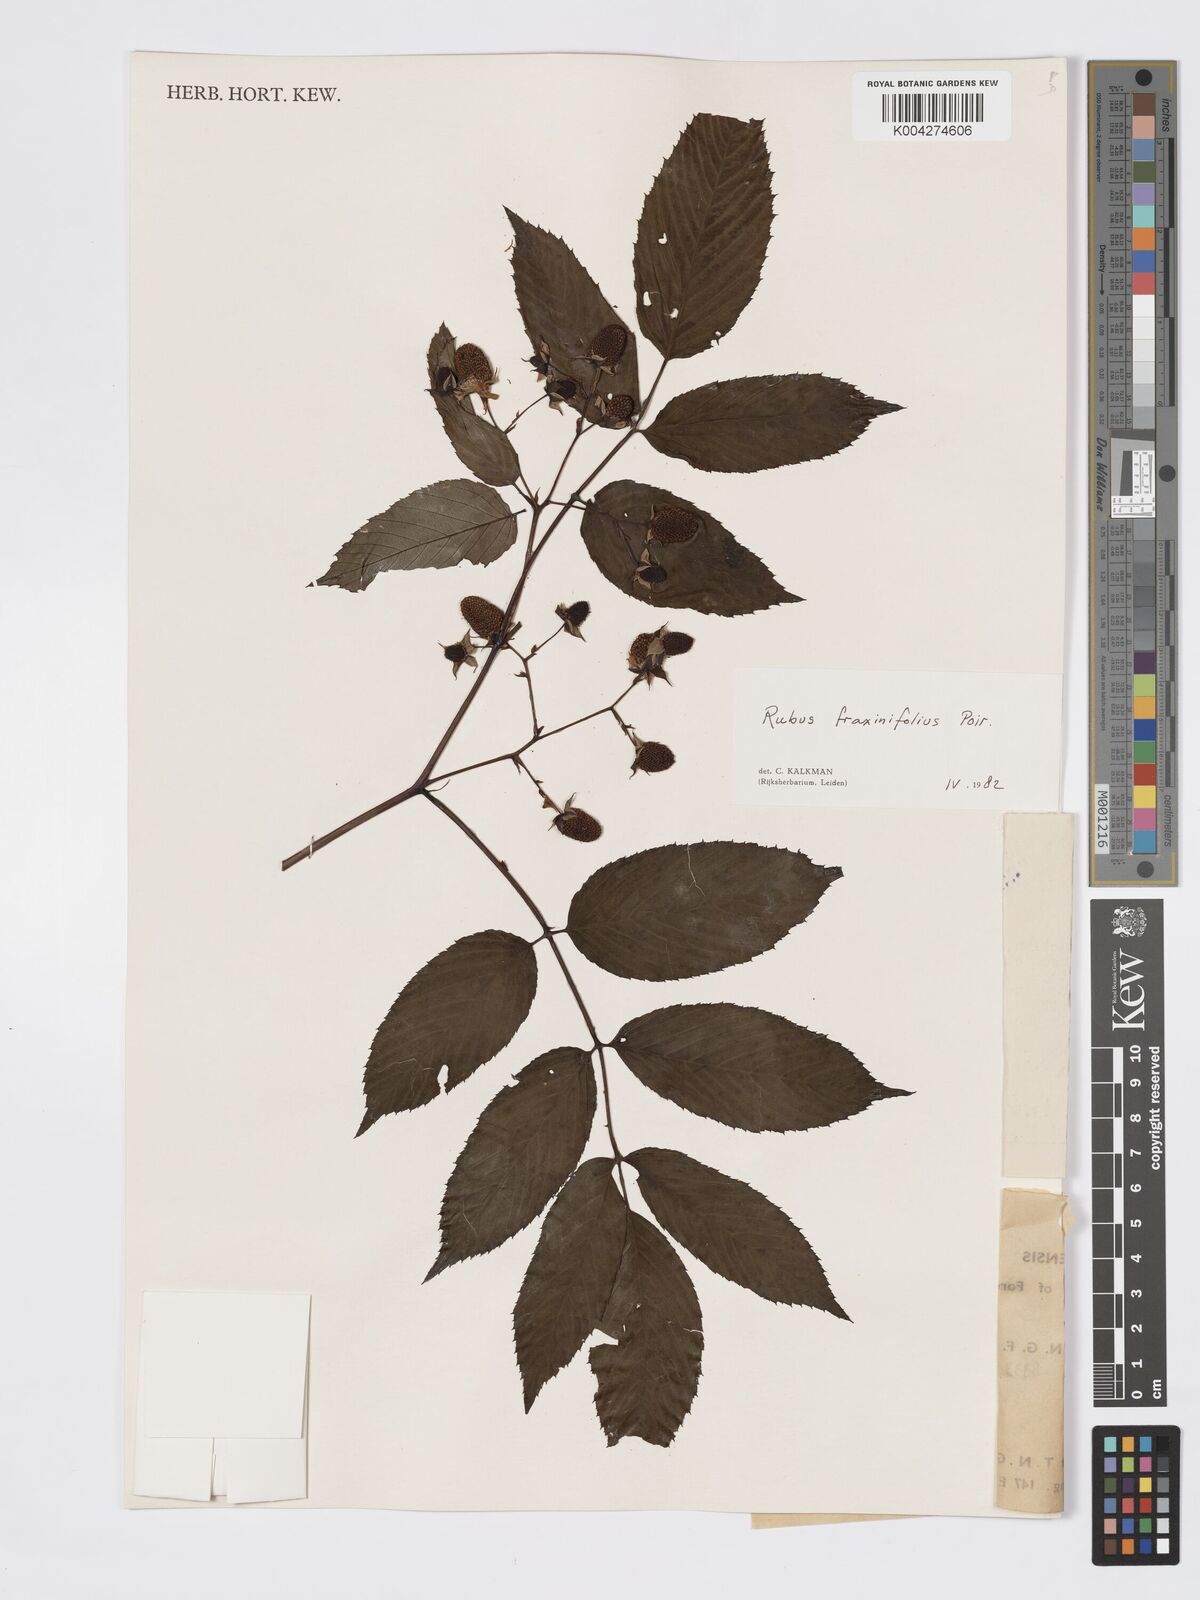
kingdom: Plantae
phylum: Tracheophyta
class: Magnoliopsida
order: Rosales
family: Rosaceae
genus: Rubus
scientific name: Rubus fraxinifolius
